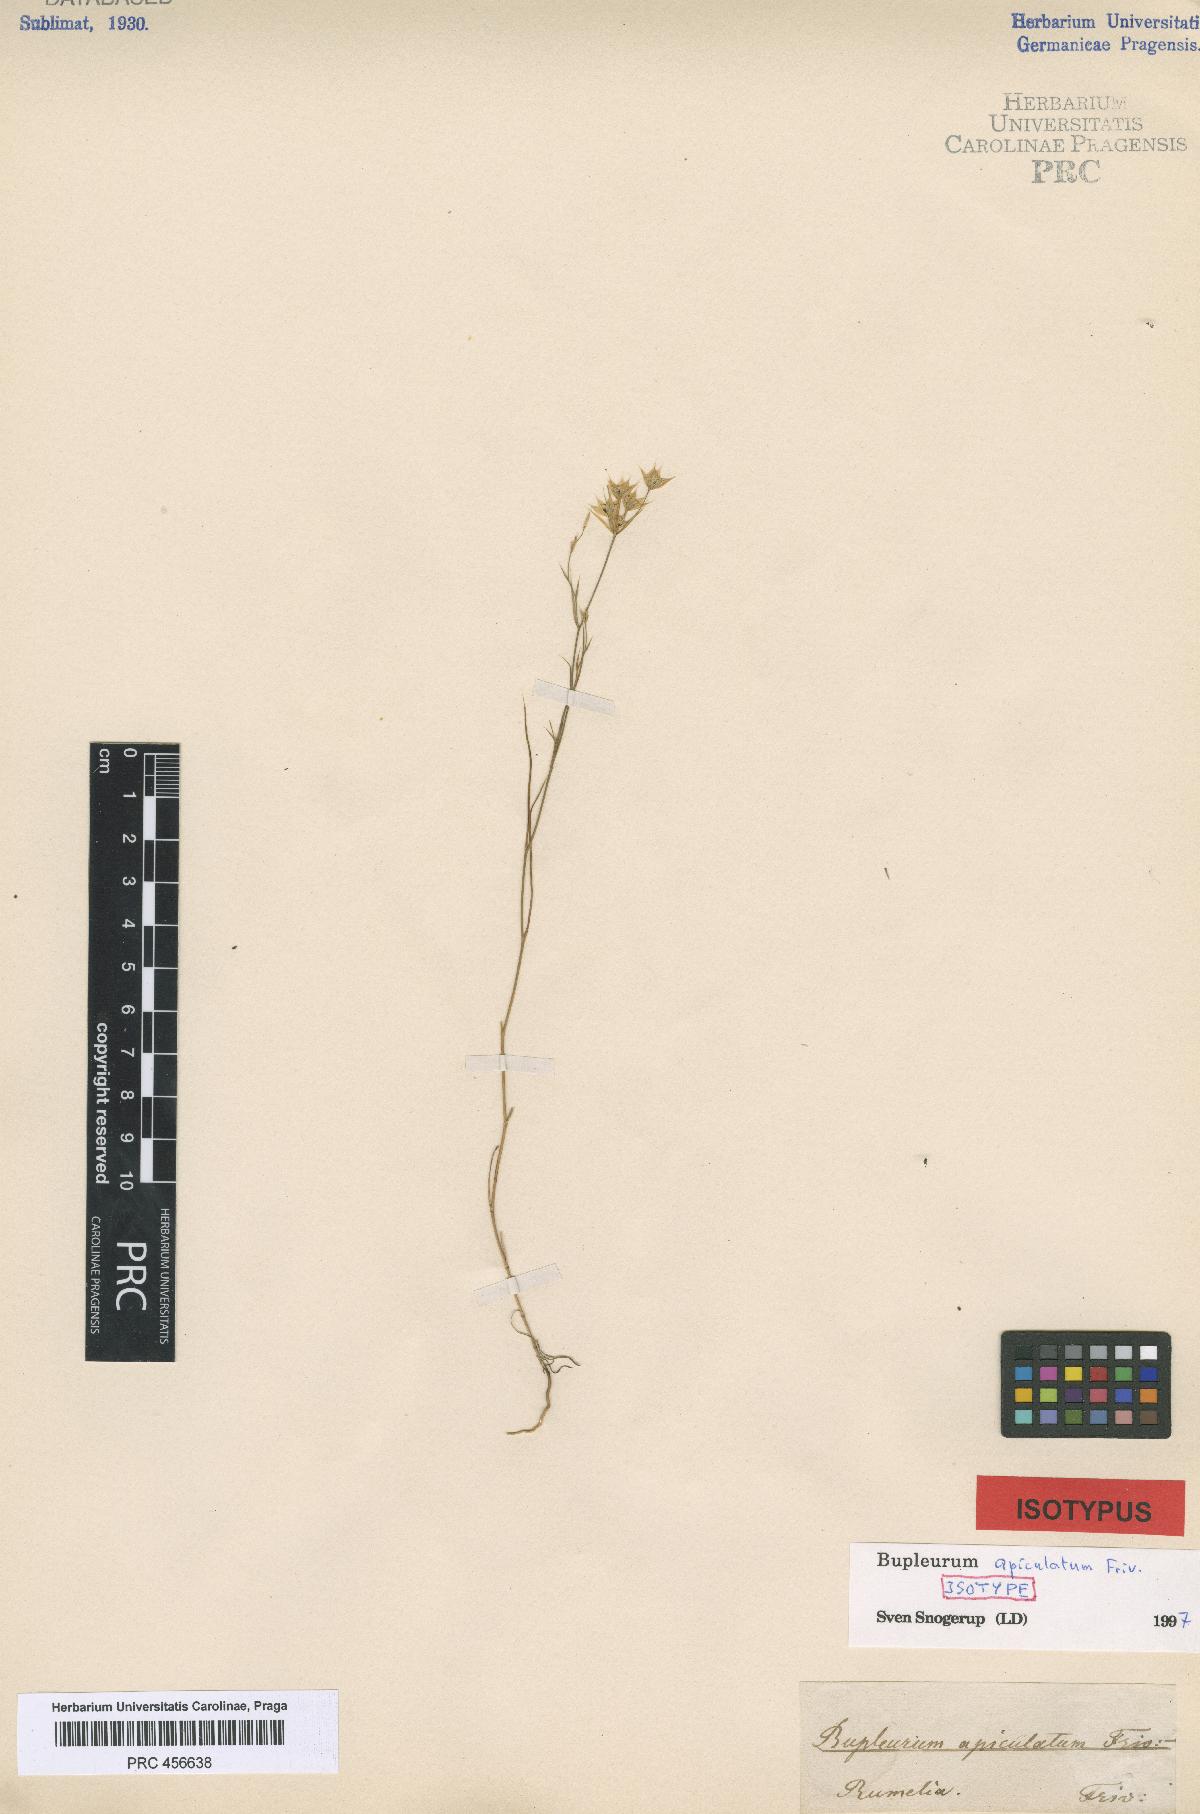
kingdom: Plantae
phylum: Tracheophyta
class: Magnoliopsida
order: Apiales
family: Apiaceae
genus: Bupleurum
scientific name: Bupleurum apiculatum
